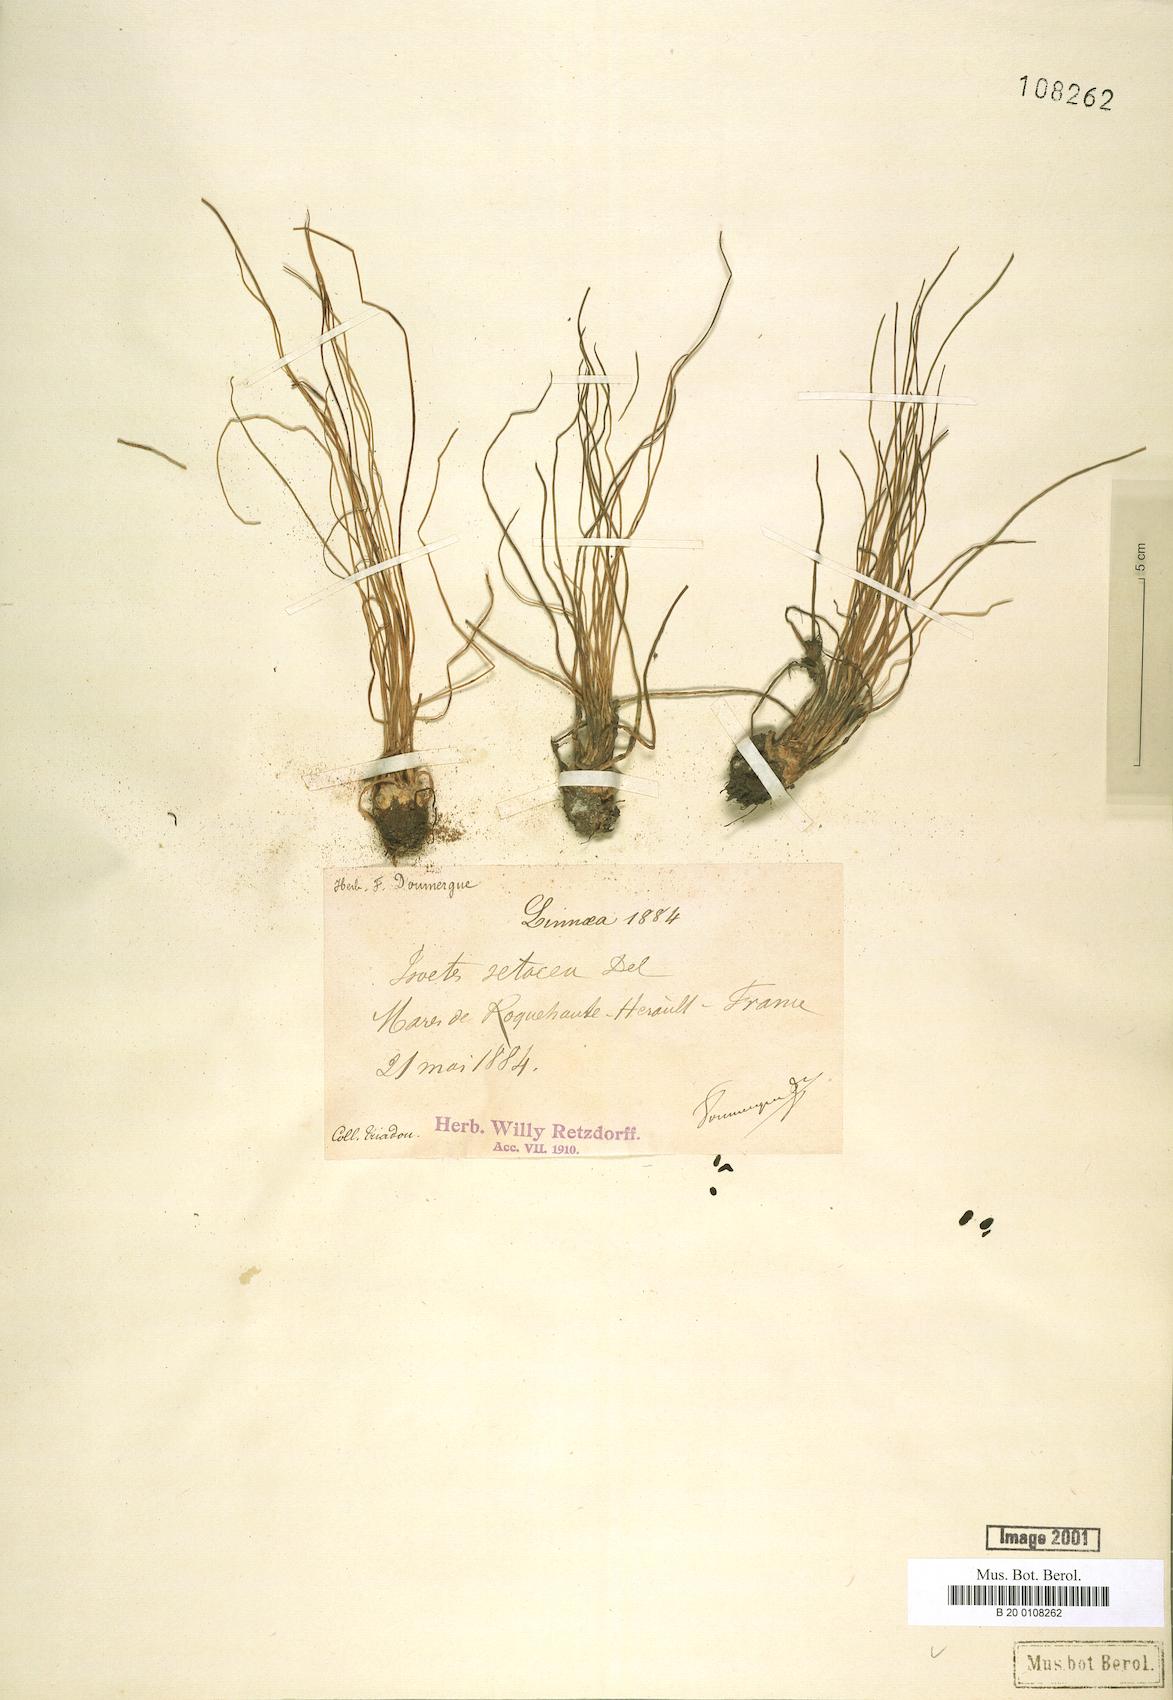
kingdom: Plantae
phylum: Tracheophyta
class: Lycopodiopsida
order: Isoetales
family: Isoetaceae
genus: Isoetes
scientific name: Isoetes lacustris
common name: Common quillwort
